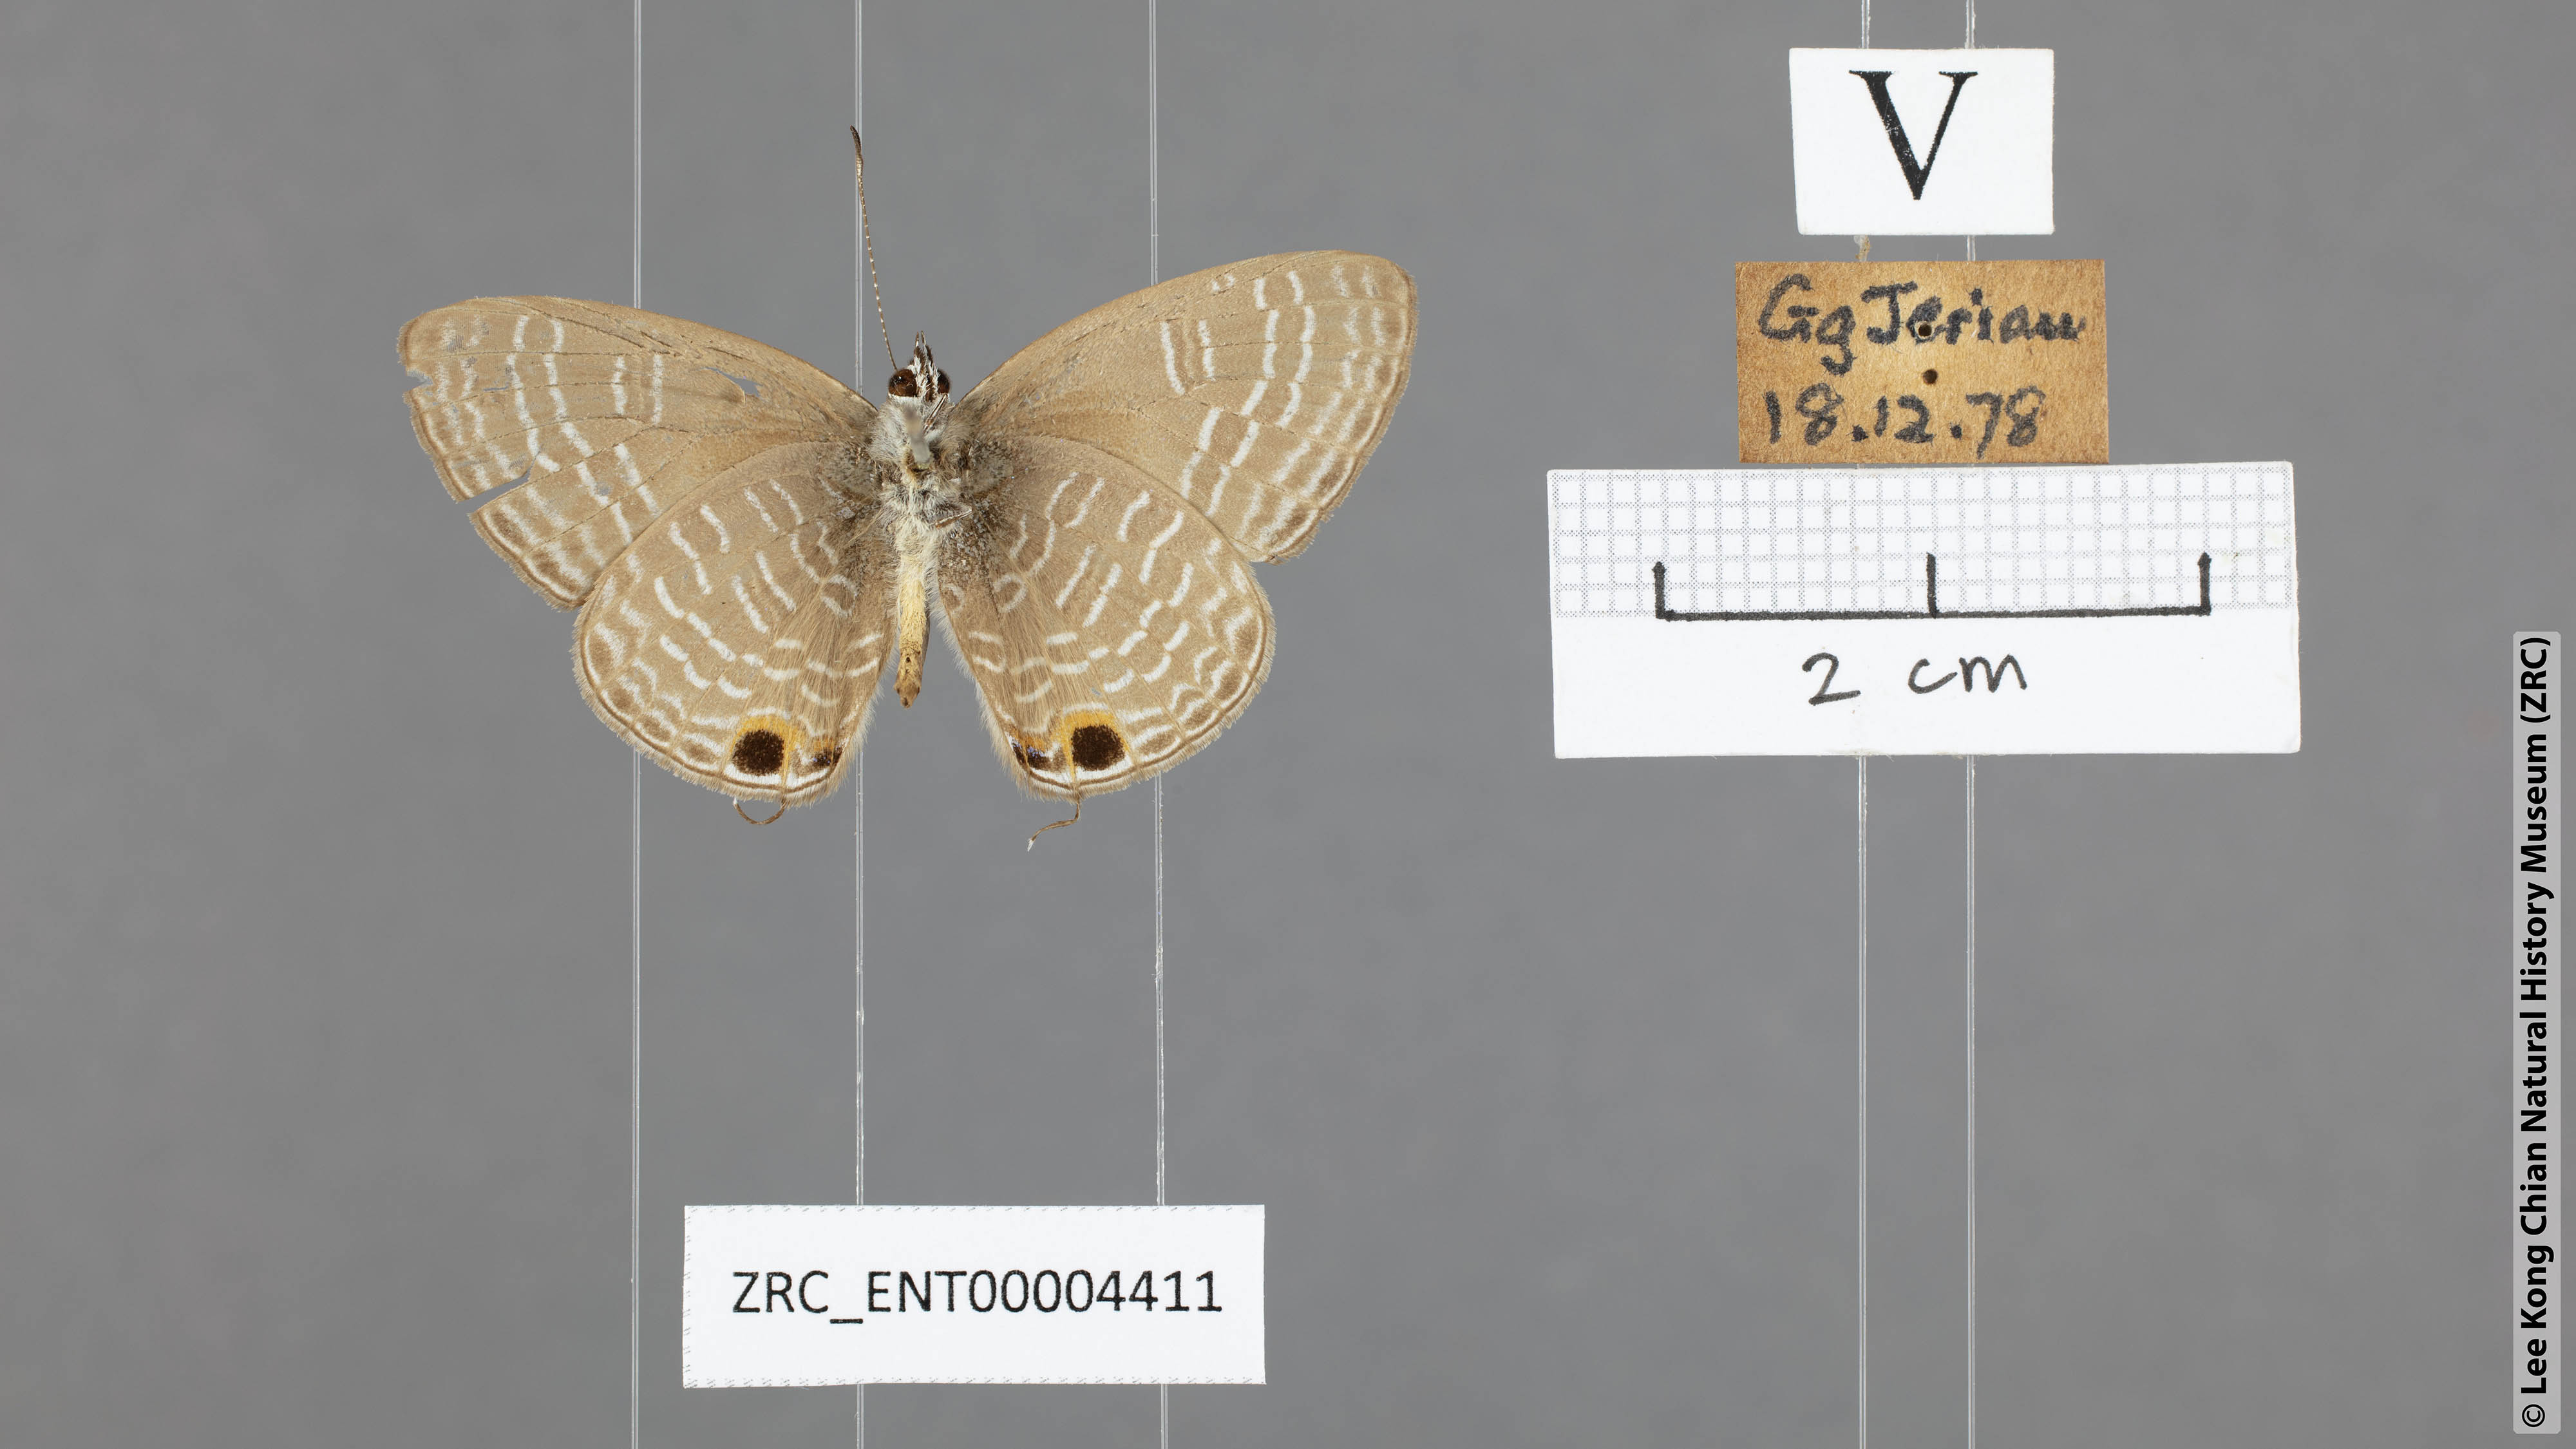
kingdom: Animalia
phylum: Arthropoda
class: Insecta
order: Lepidoptera
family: Lycaenidae
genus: Nacaduba
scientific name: Nacaduba pendleburyi
